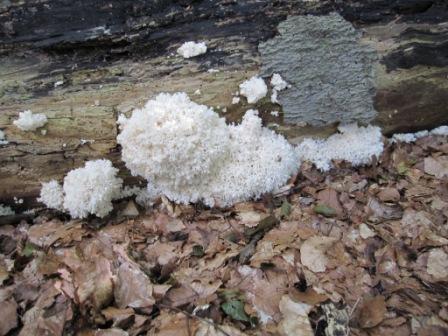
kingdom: Fungi
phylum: Basidiomycota
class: Agaricomycetes
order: Russulales
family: Hericiaceae
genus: Hericium
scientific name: Hericium coralloides
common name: koralpigsvamp
